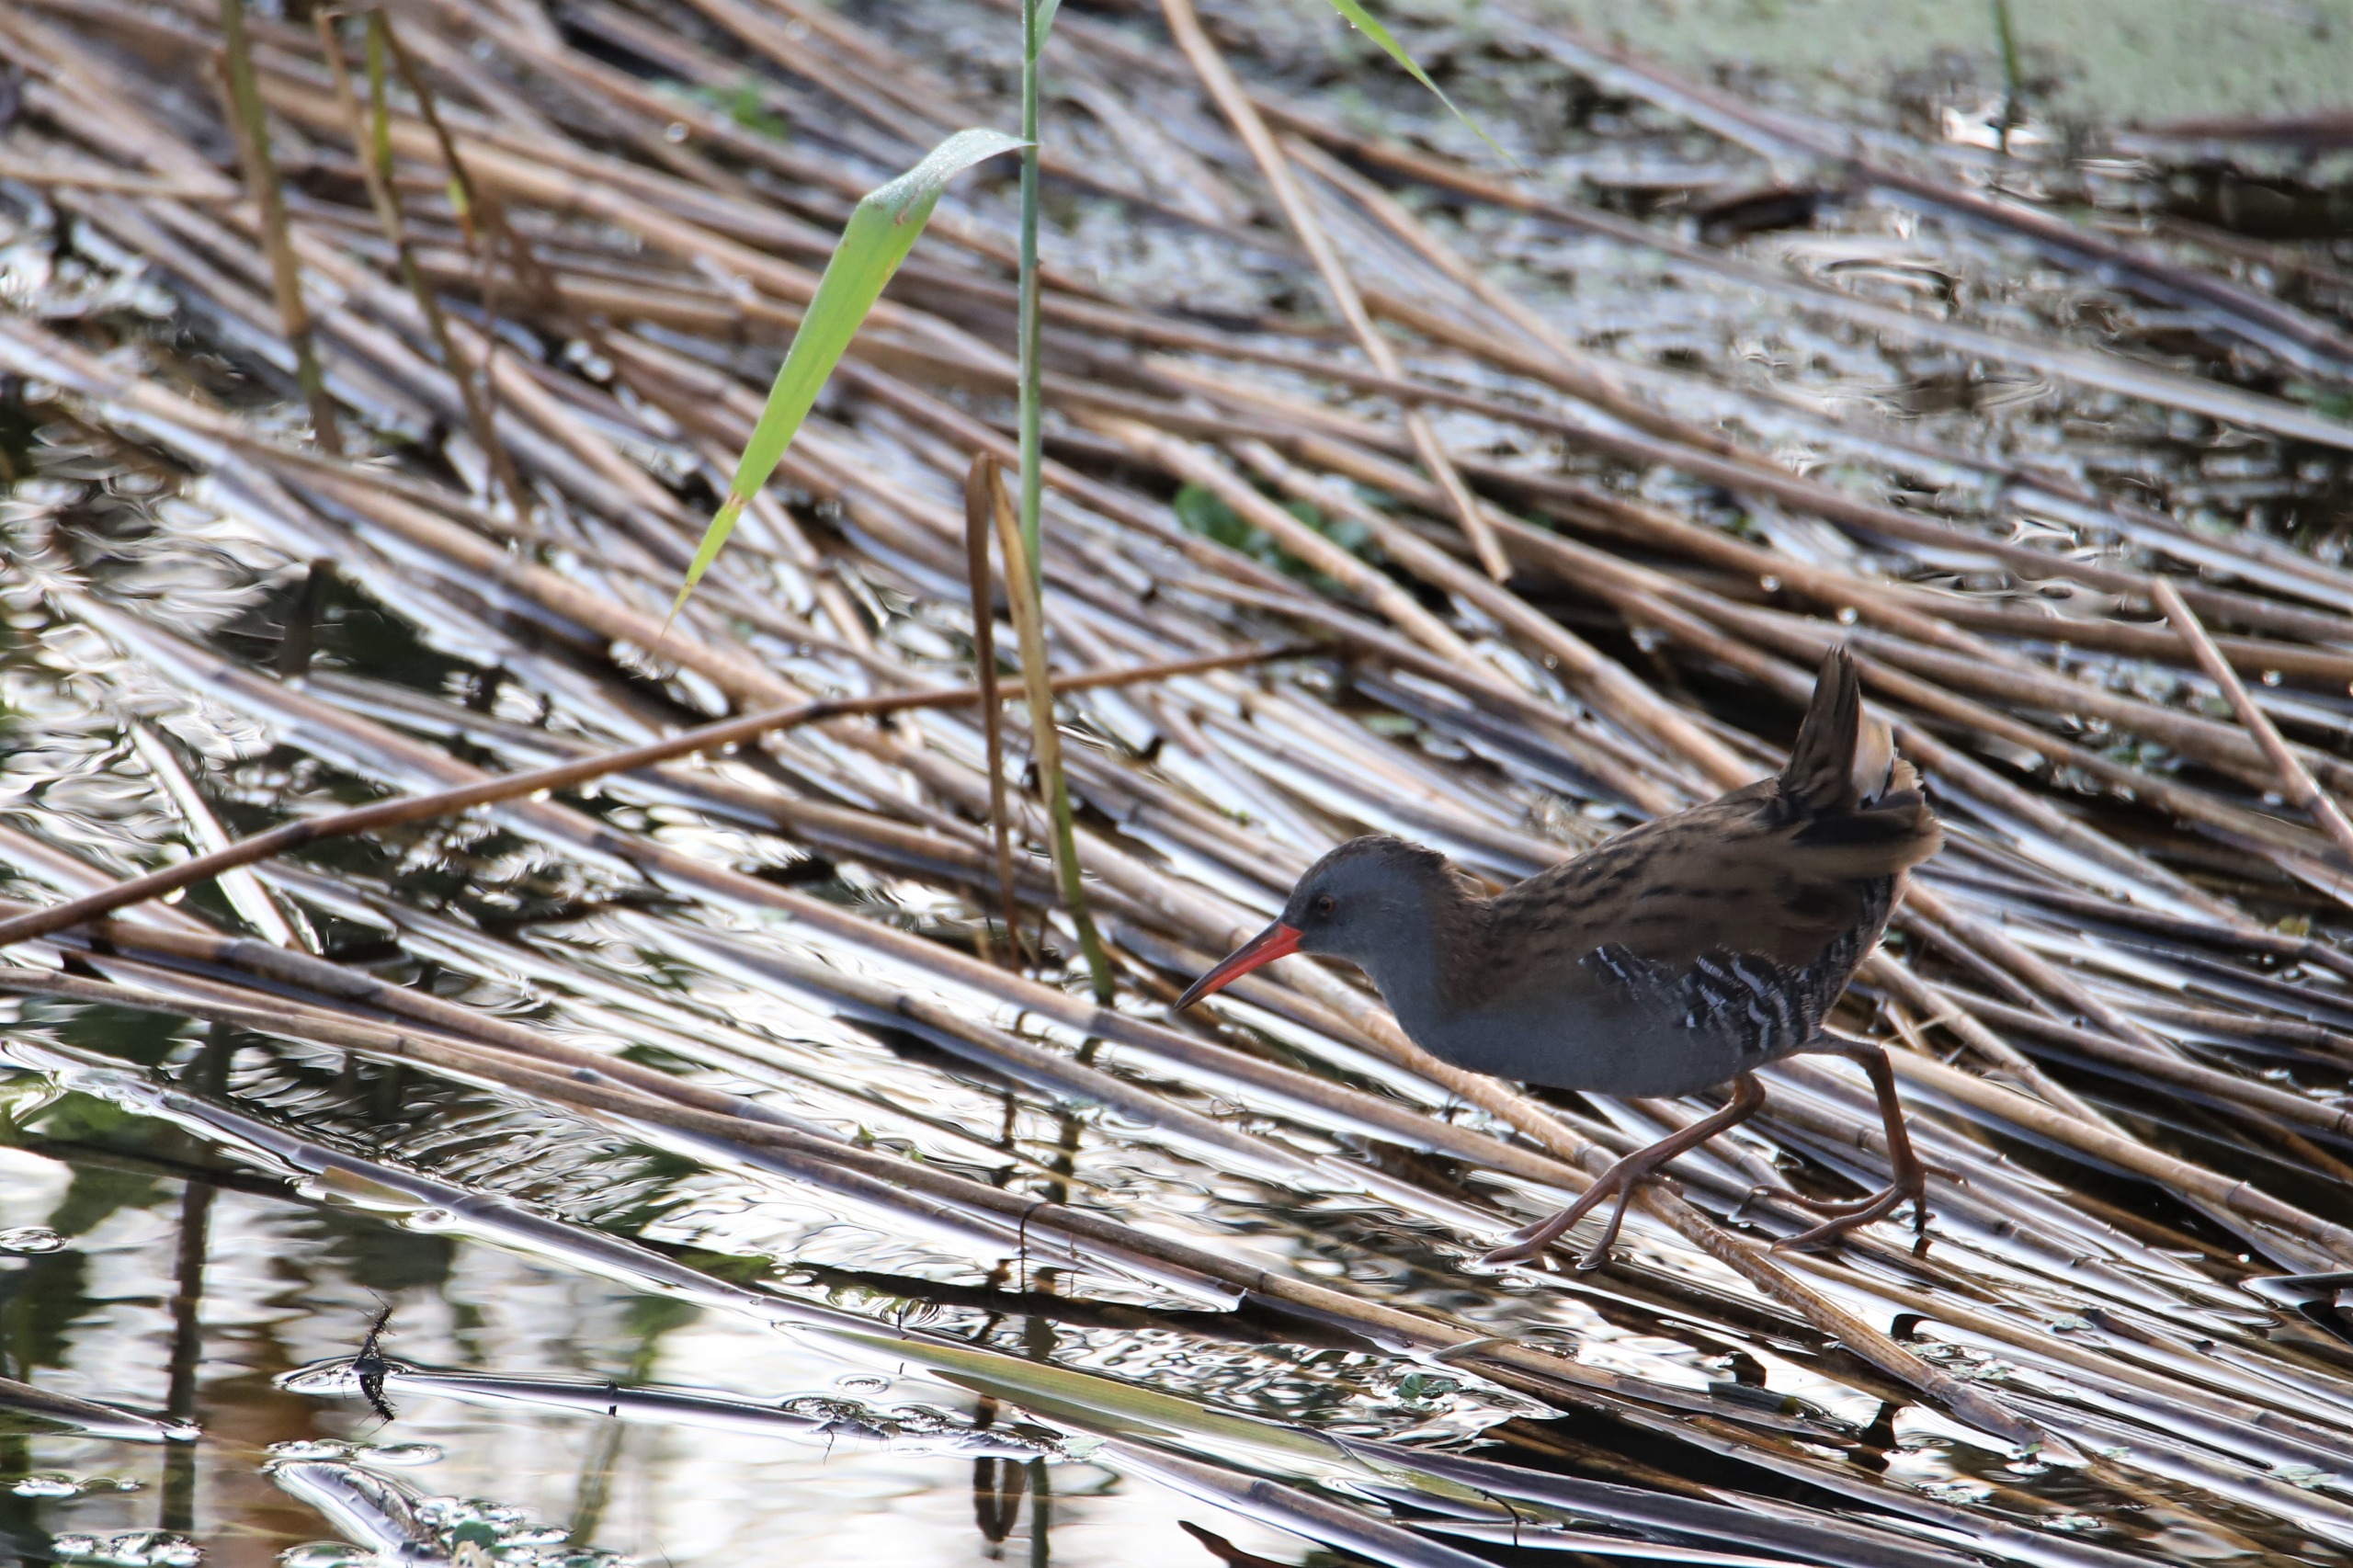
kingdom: Animalia
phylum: Chordata
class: Aves
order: Gruiformes
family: Rallidae
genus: Rallus
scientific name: Rallus aquaticus
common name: Vandrikse
